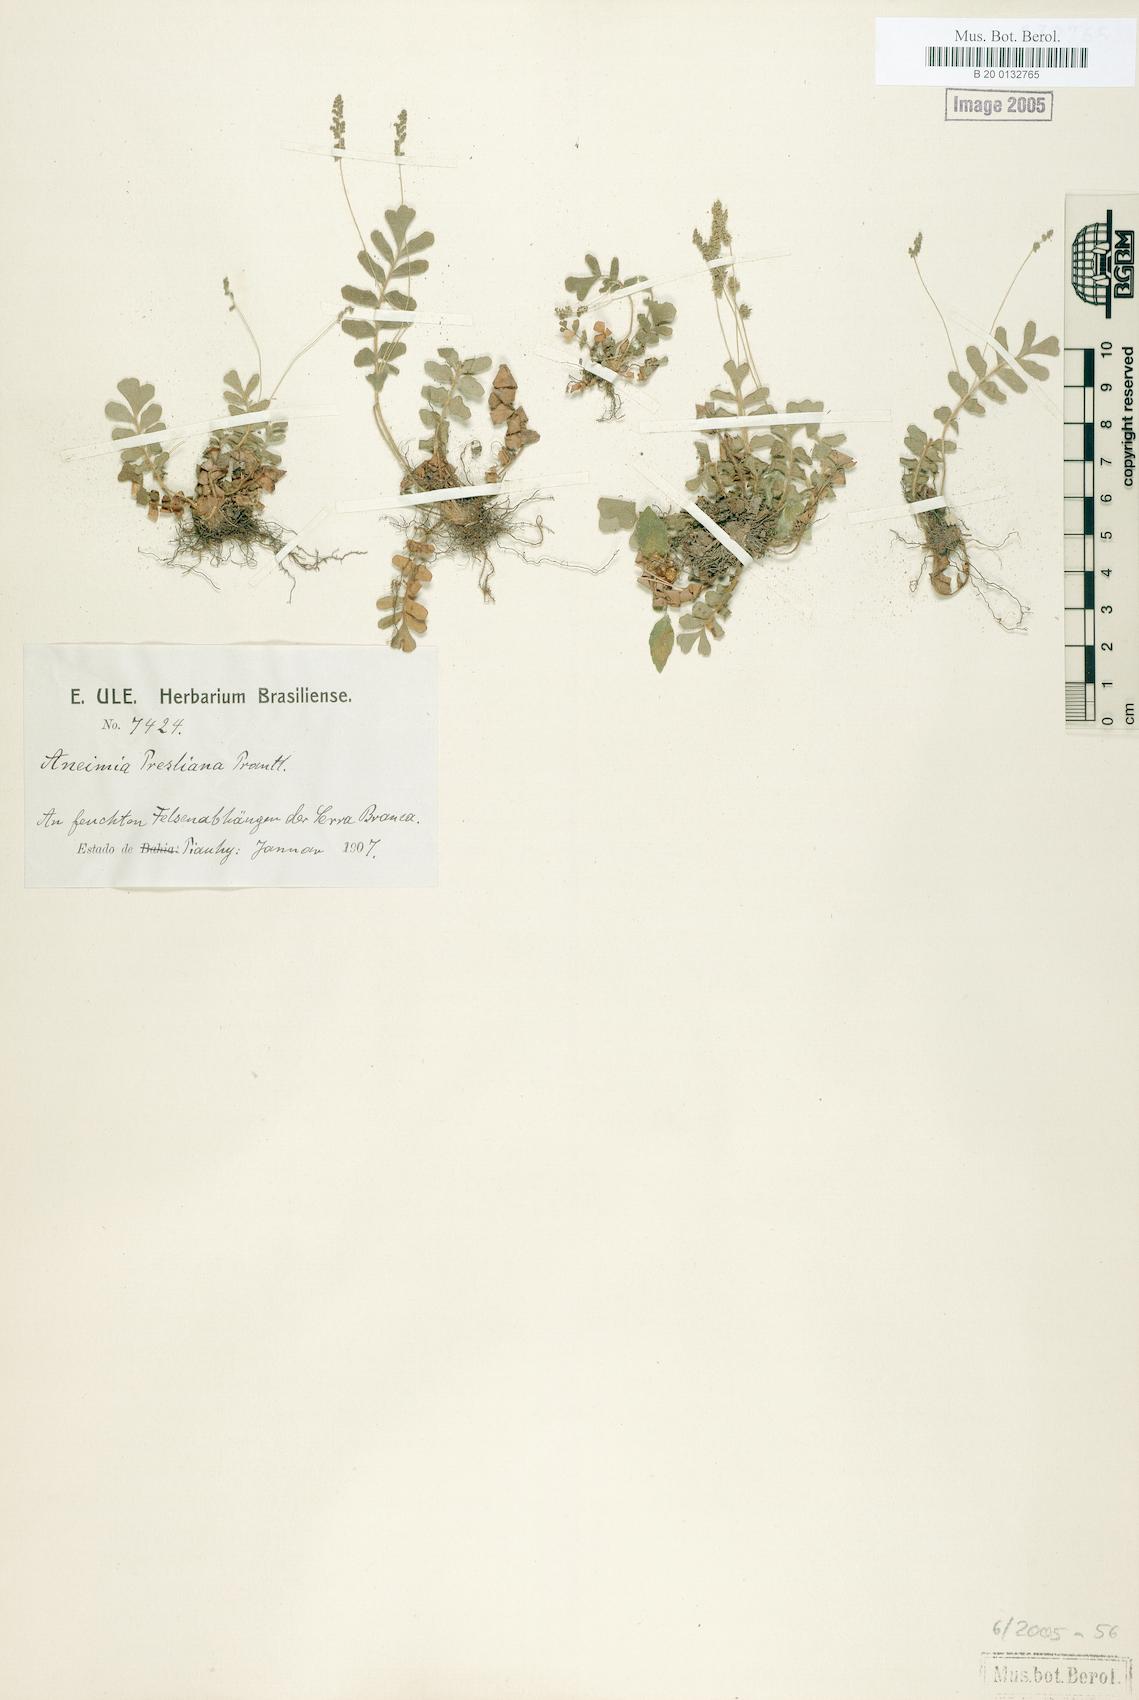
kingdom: Plantae
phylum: Tracheophyta
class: Polypodiopsida
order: Schizaeales
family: Anemiaceae
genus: Anemia
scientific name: Anemia presliana
